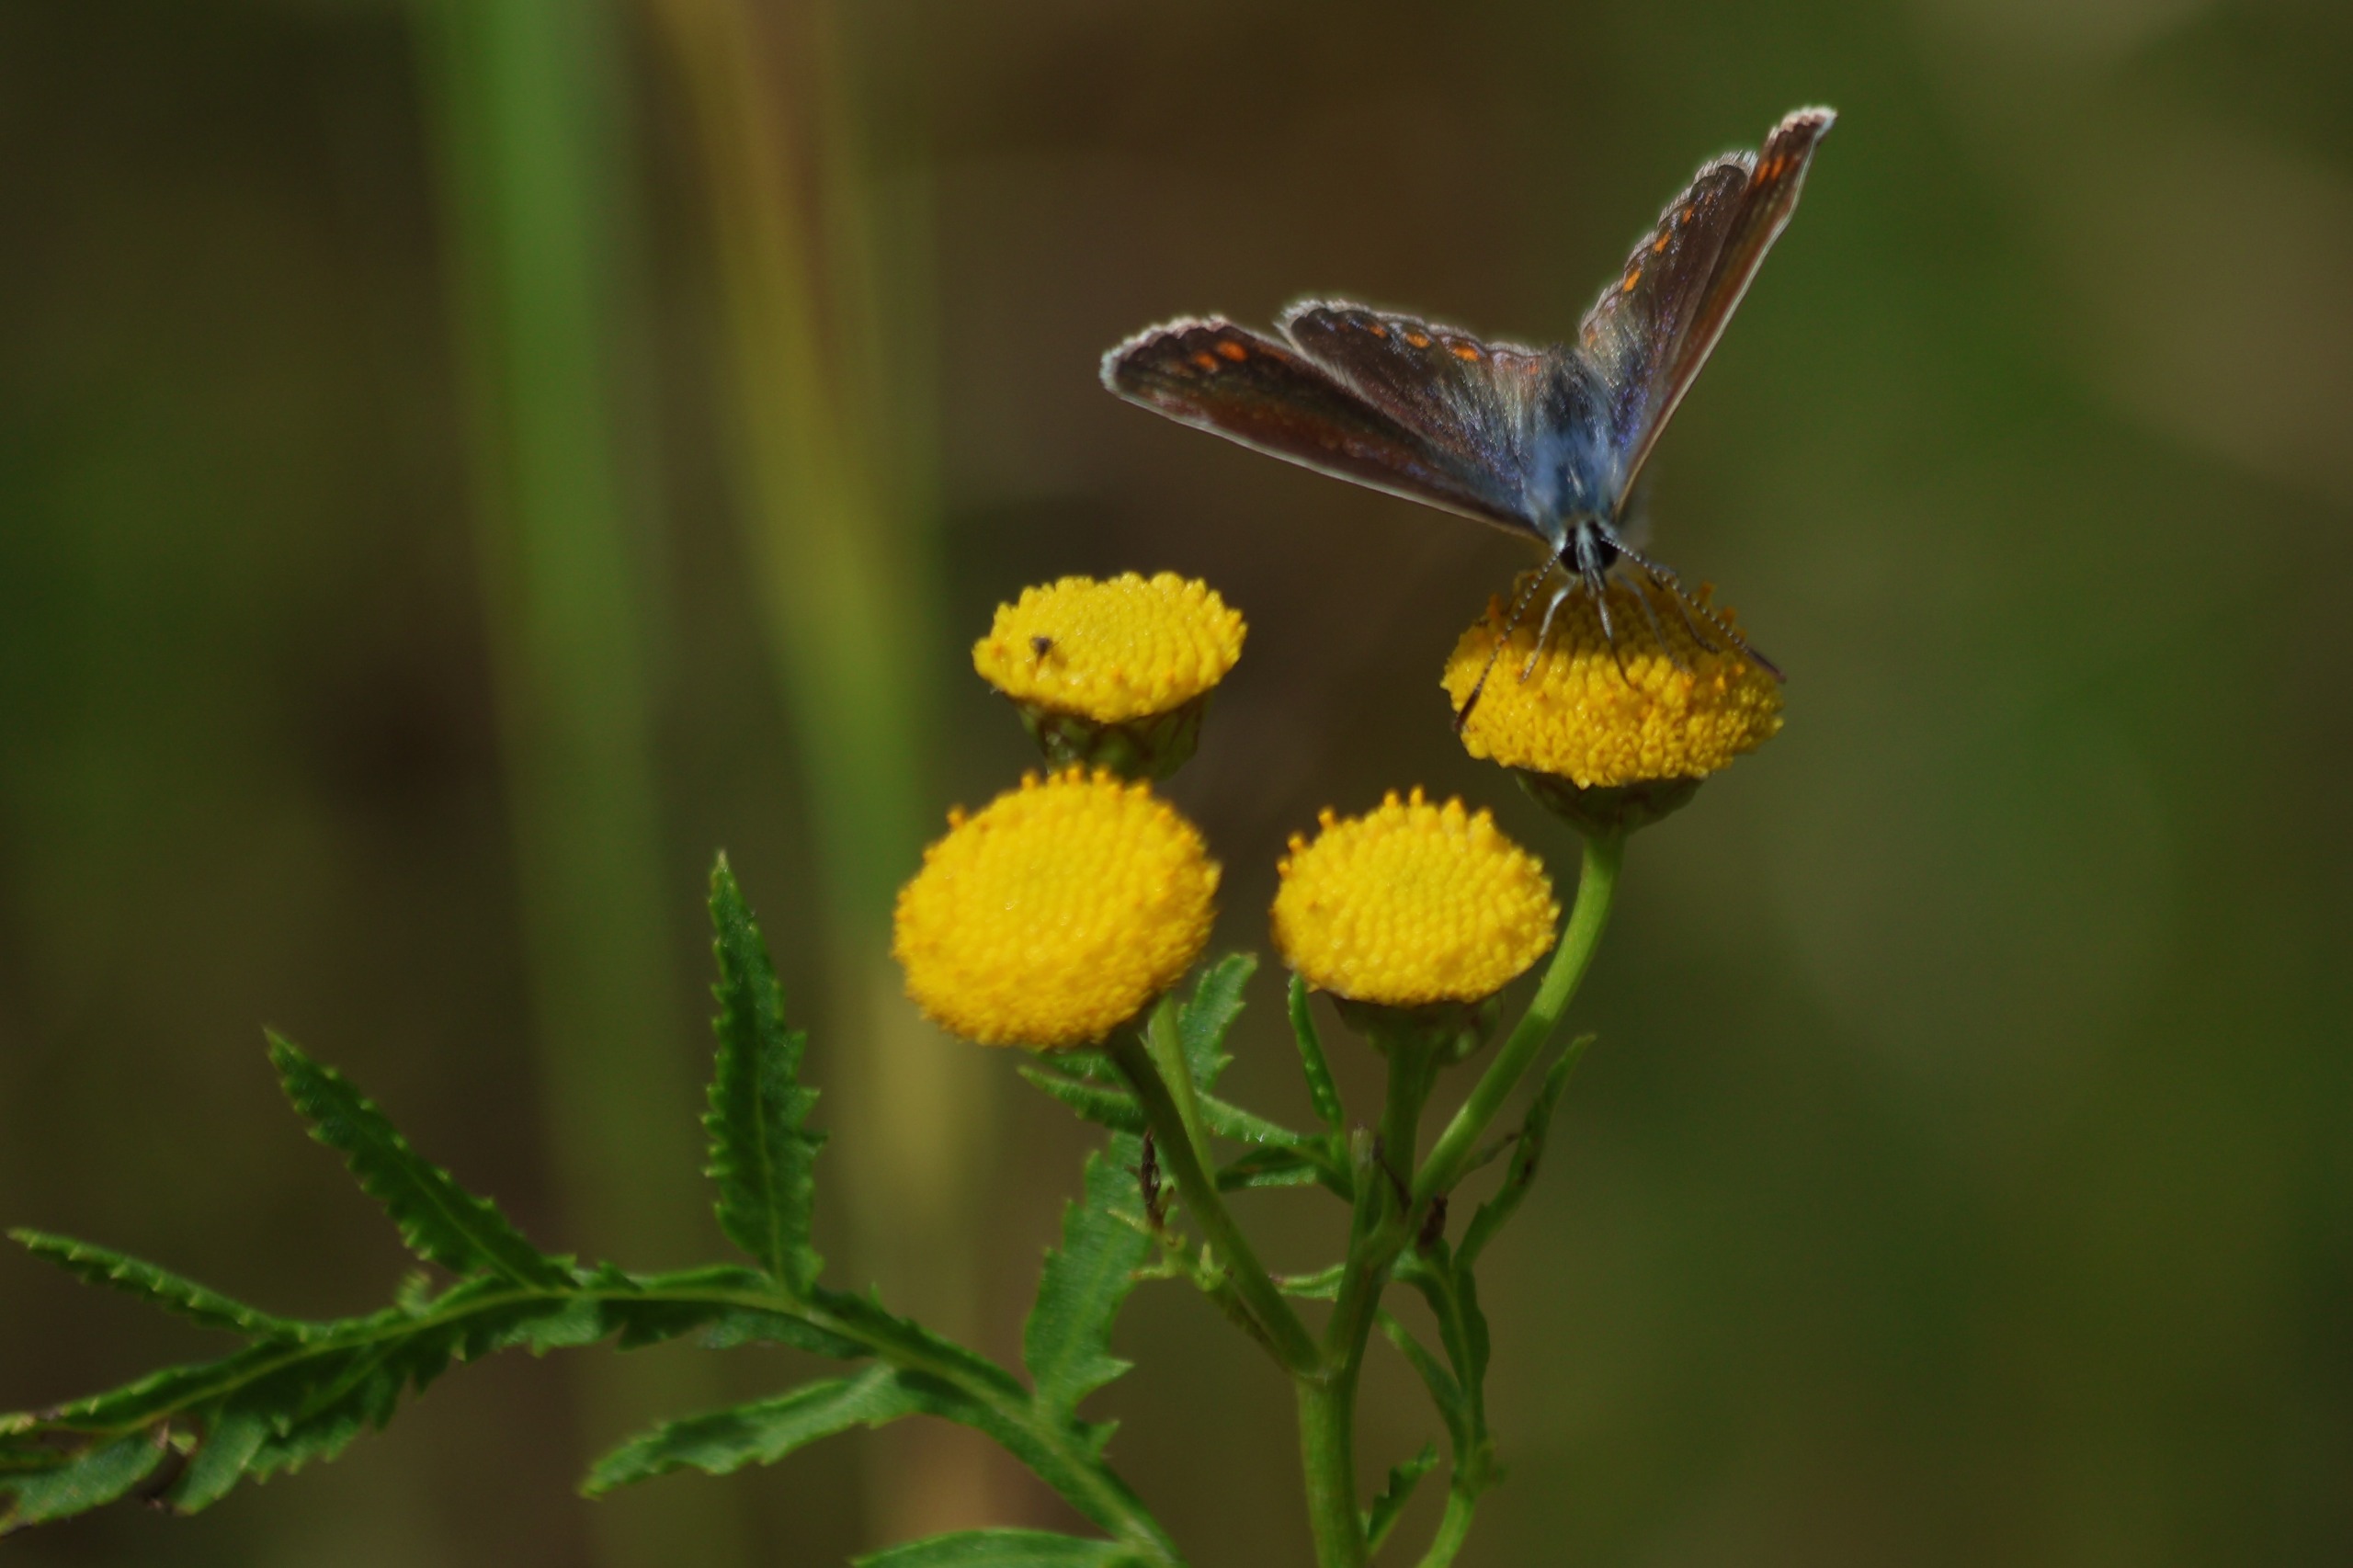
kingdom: Animalia
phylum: Arthropoda
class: Insecta
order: Lepidoptera
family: Lycaenidae
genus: Polyommatus
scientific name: Polyommatus icarus
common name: Almindelig blåfugl
